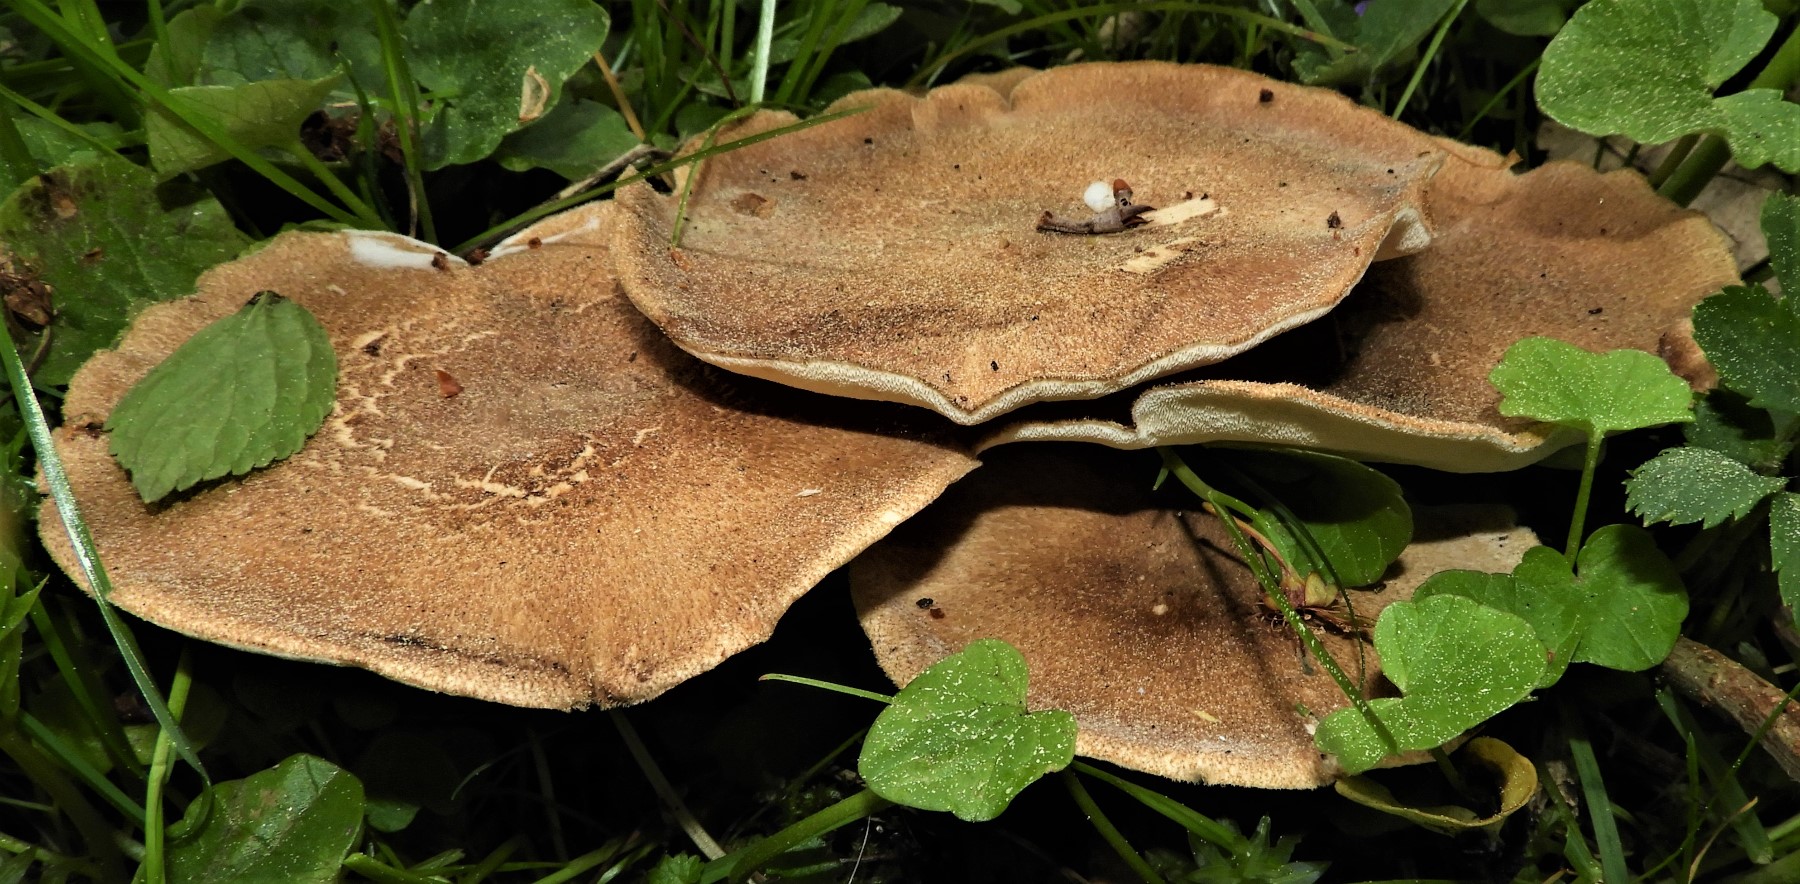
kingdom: Fungi
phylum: Basidiomycota
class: Agaricomycetes
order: Polyporales
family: Polyporaceae
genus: Lentinus
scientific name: Lentinus substrictus
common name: forårs-stilkporesvamp
